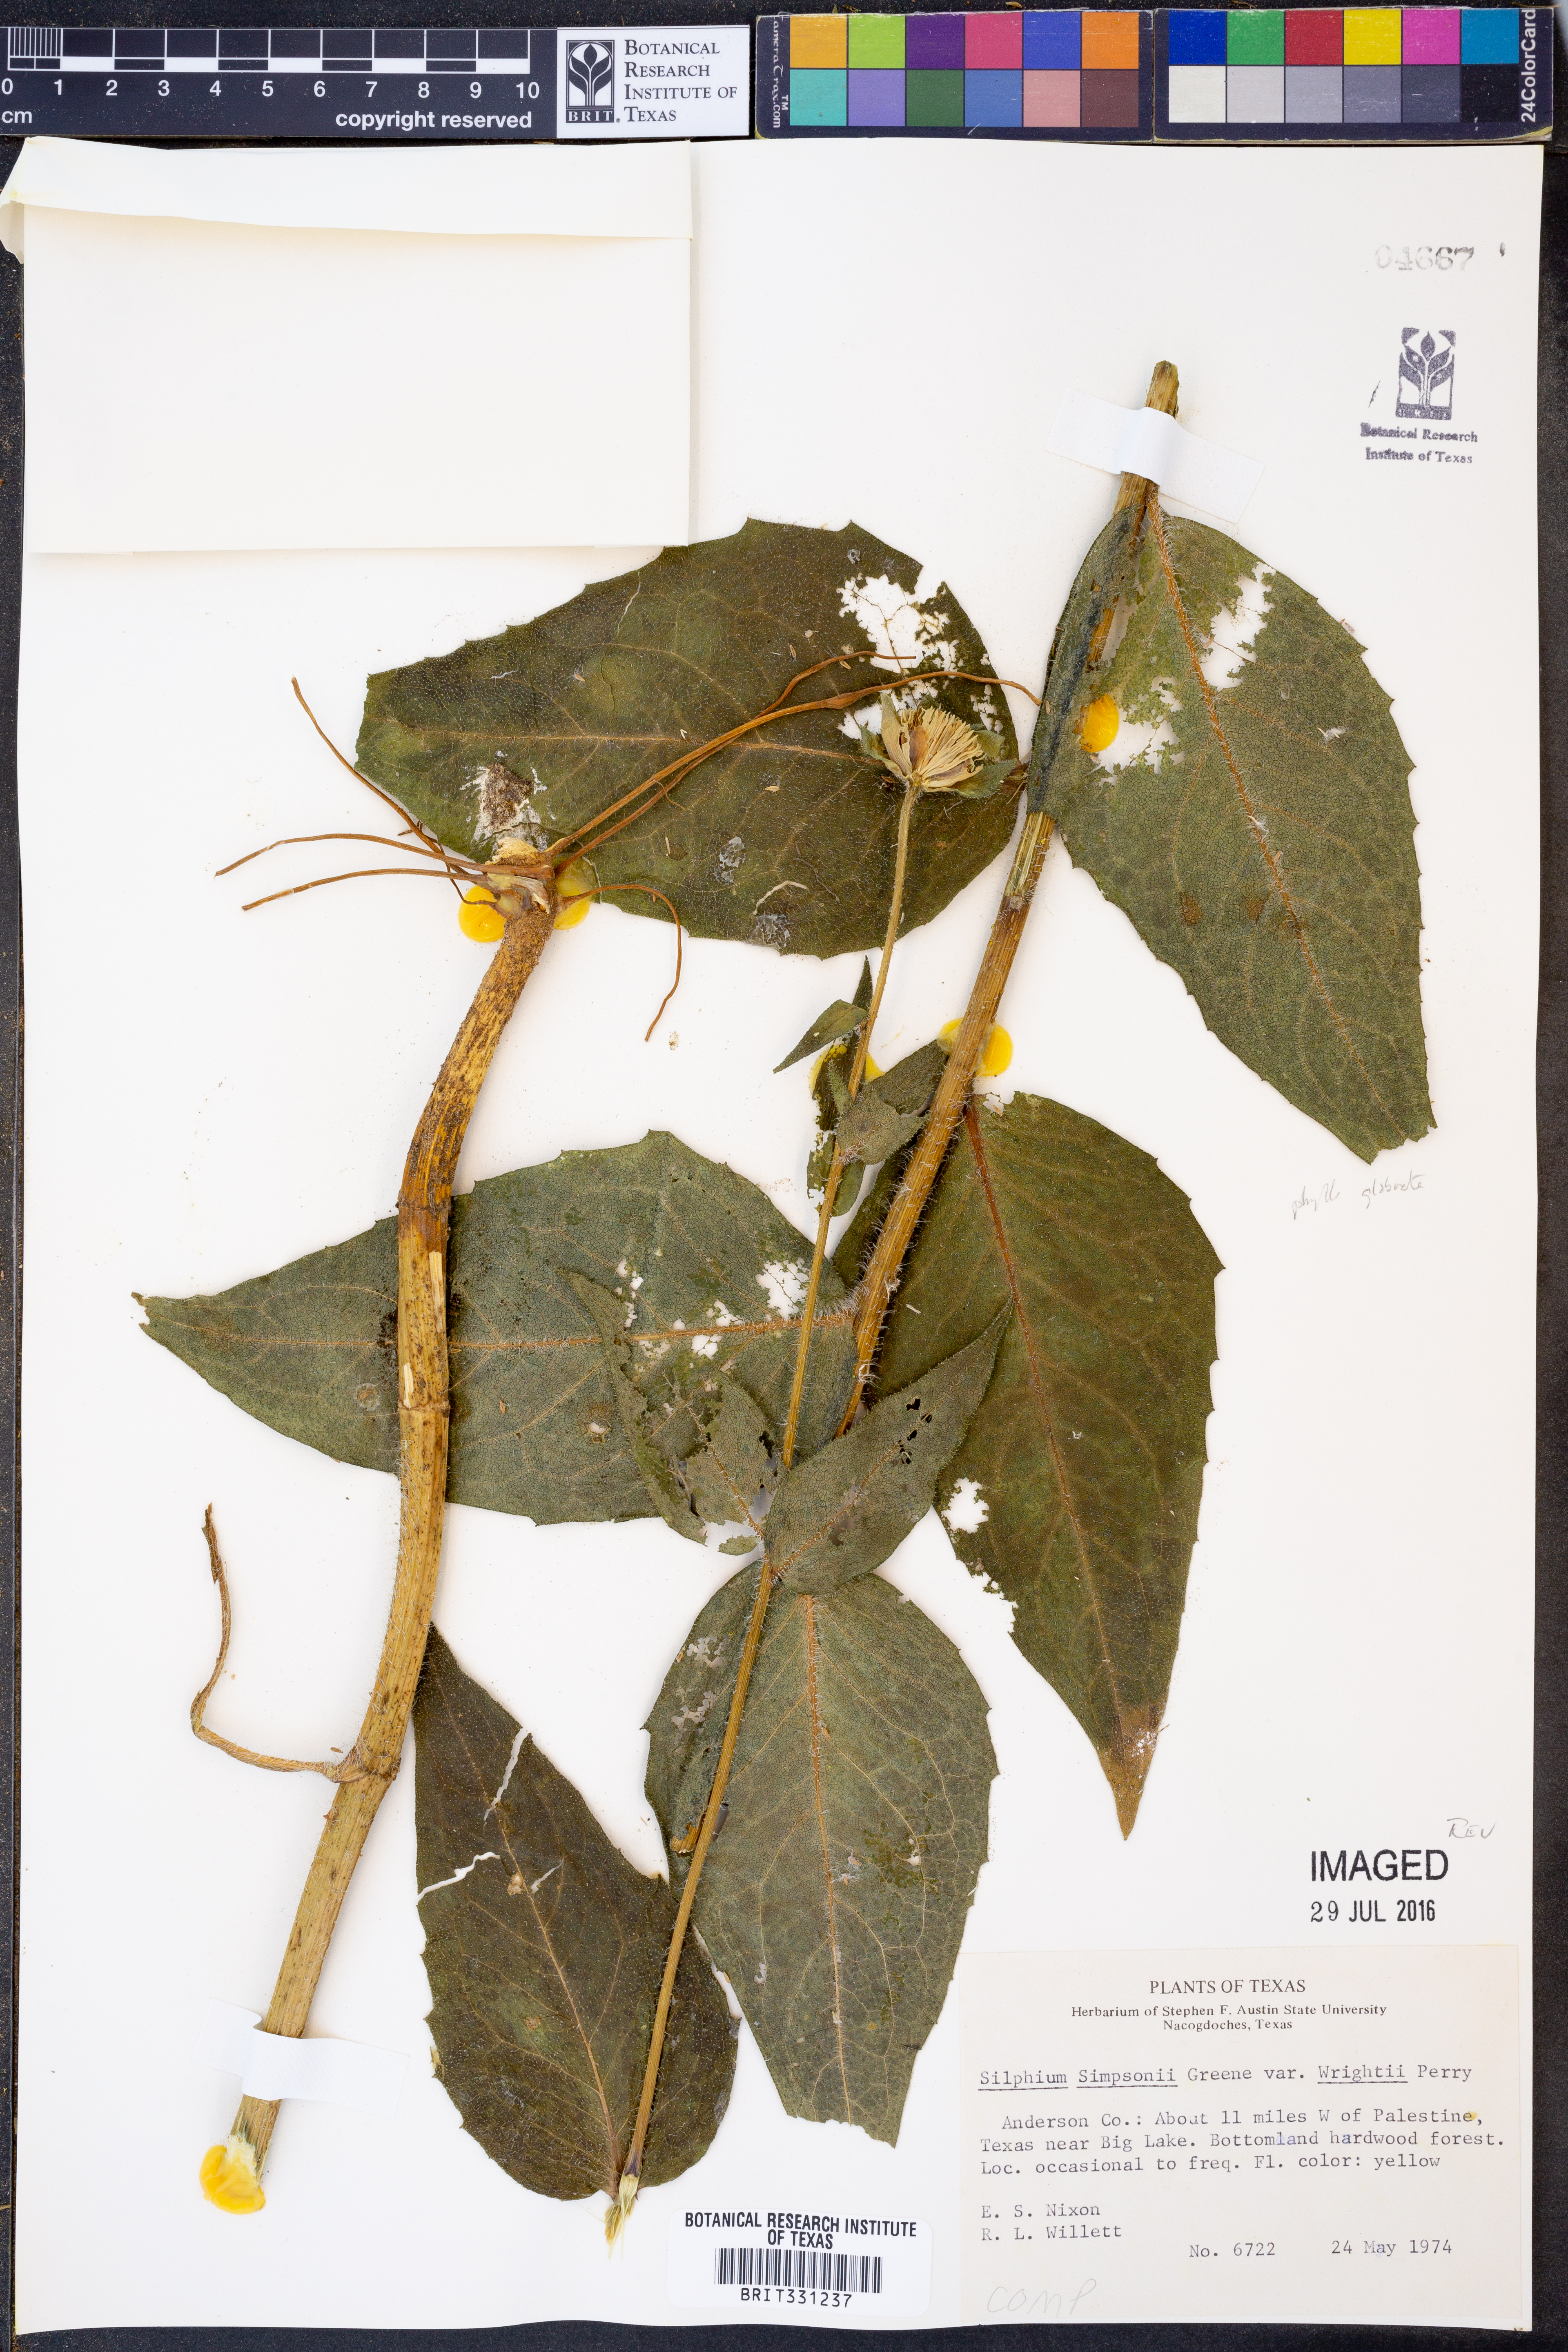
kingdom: Plantae
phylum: Tracheophyta
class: Magnoliopsida
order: Asterales
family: Asteraceae
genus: Silphium
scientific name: Silphium radula
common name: Roughleaf rosinweed
